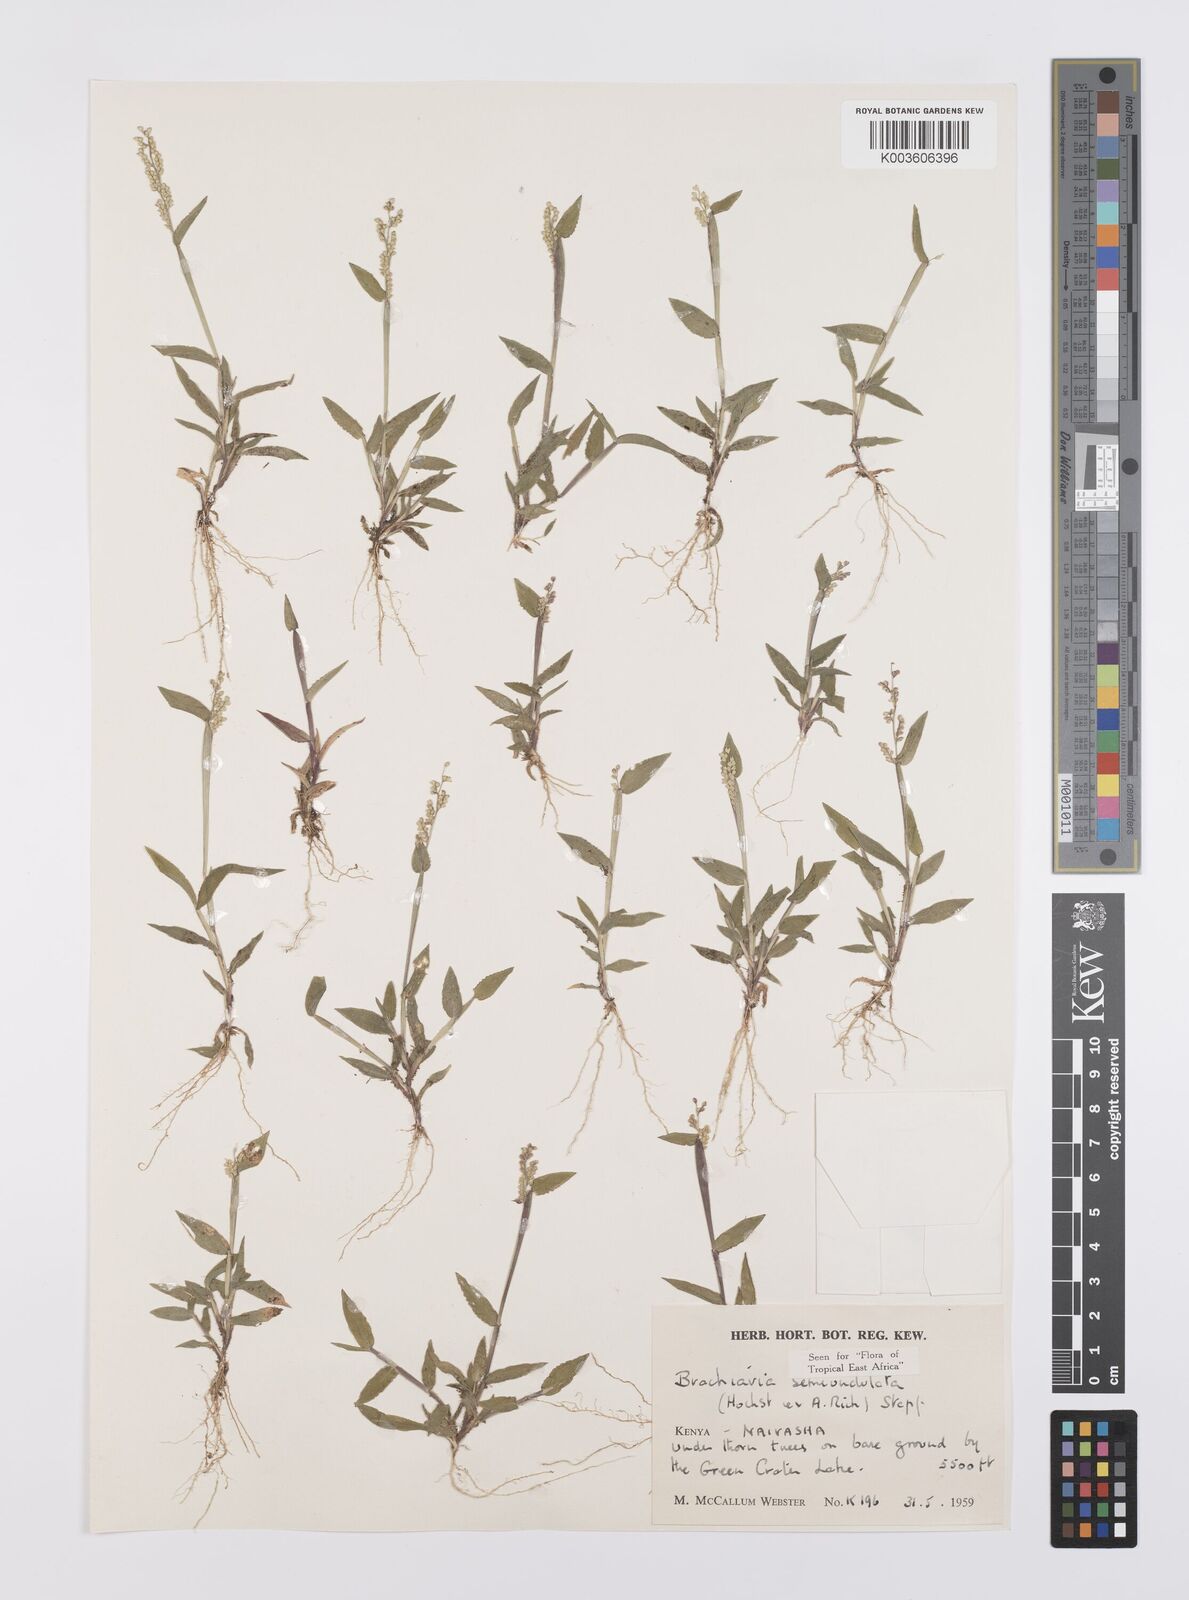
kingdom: Plantae
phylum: Tracheophyta
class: Liliopsida
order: Poales
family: Poaceae
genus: Urochloa
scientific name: Urochloa semiundulata
